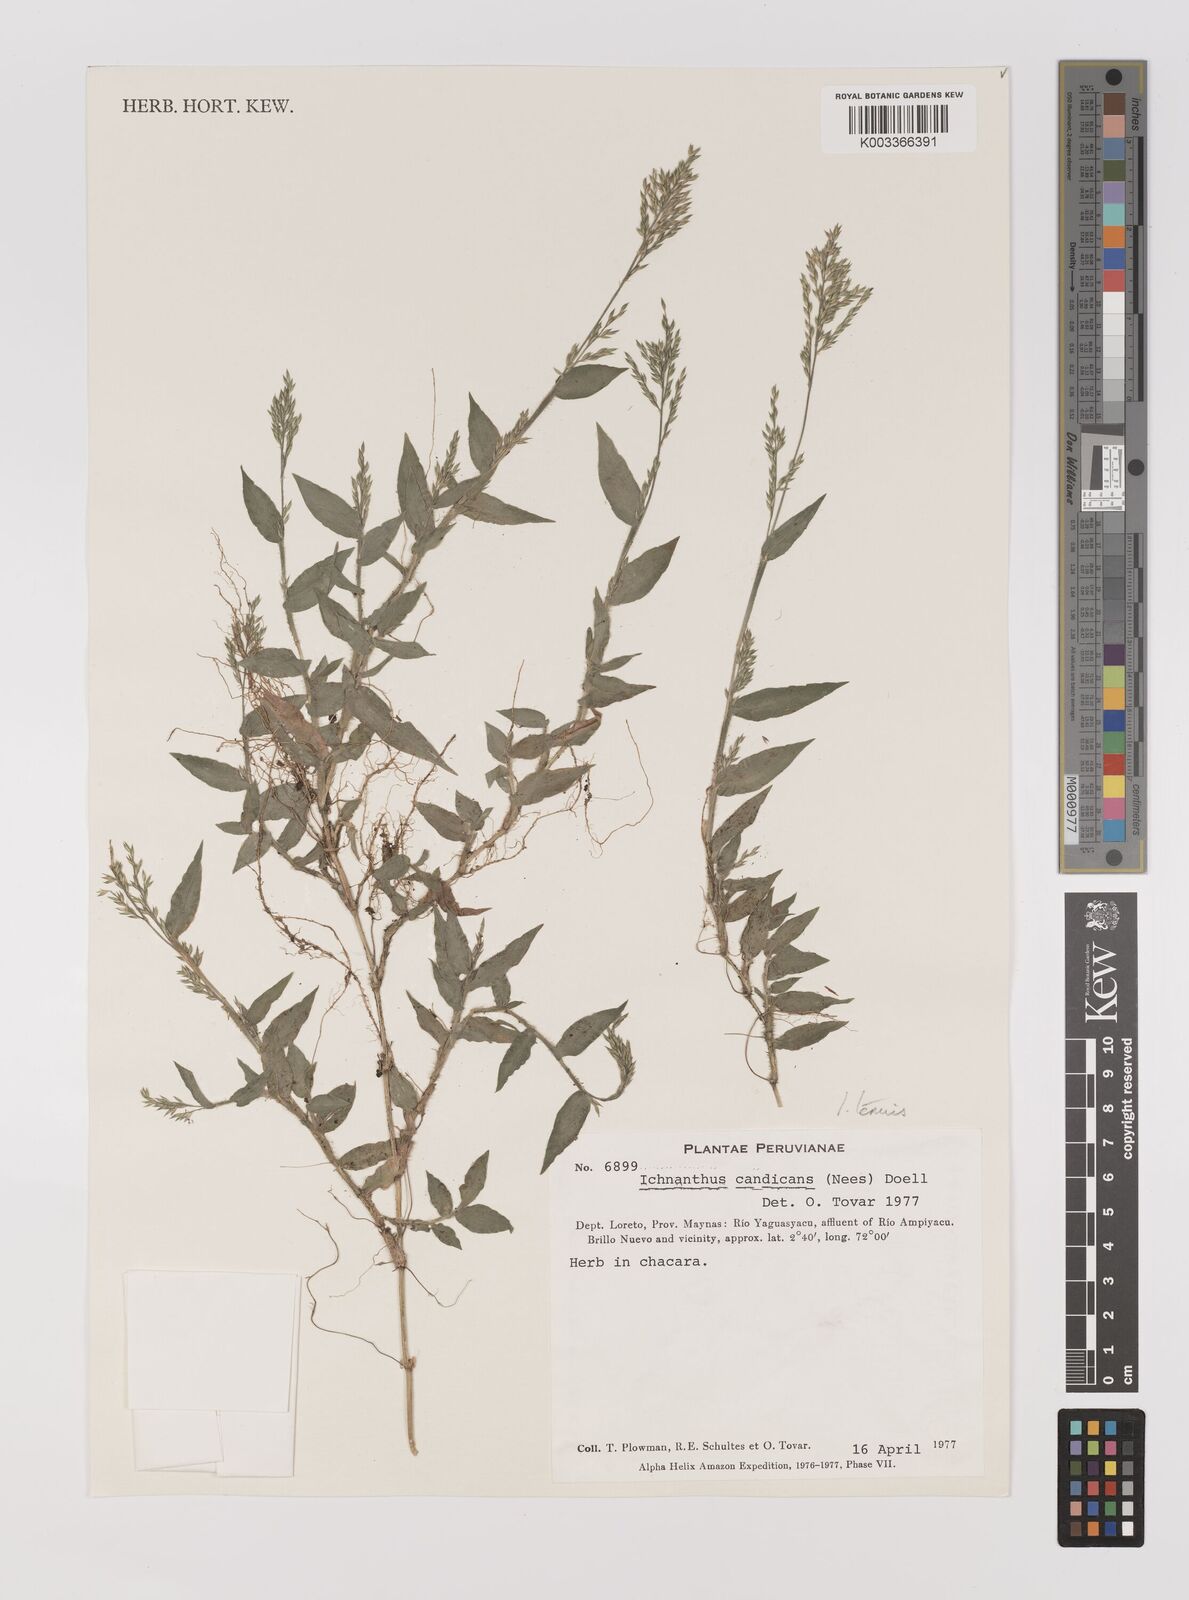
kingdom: Plantae
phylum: Tracheophyta
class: Liliopsida
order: Poales
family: Poaceae
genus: Ichnanthus
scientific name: Ichnanthus tenuis
